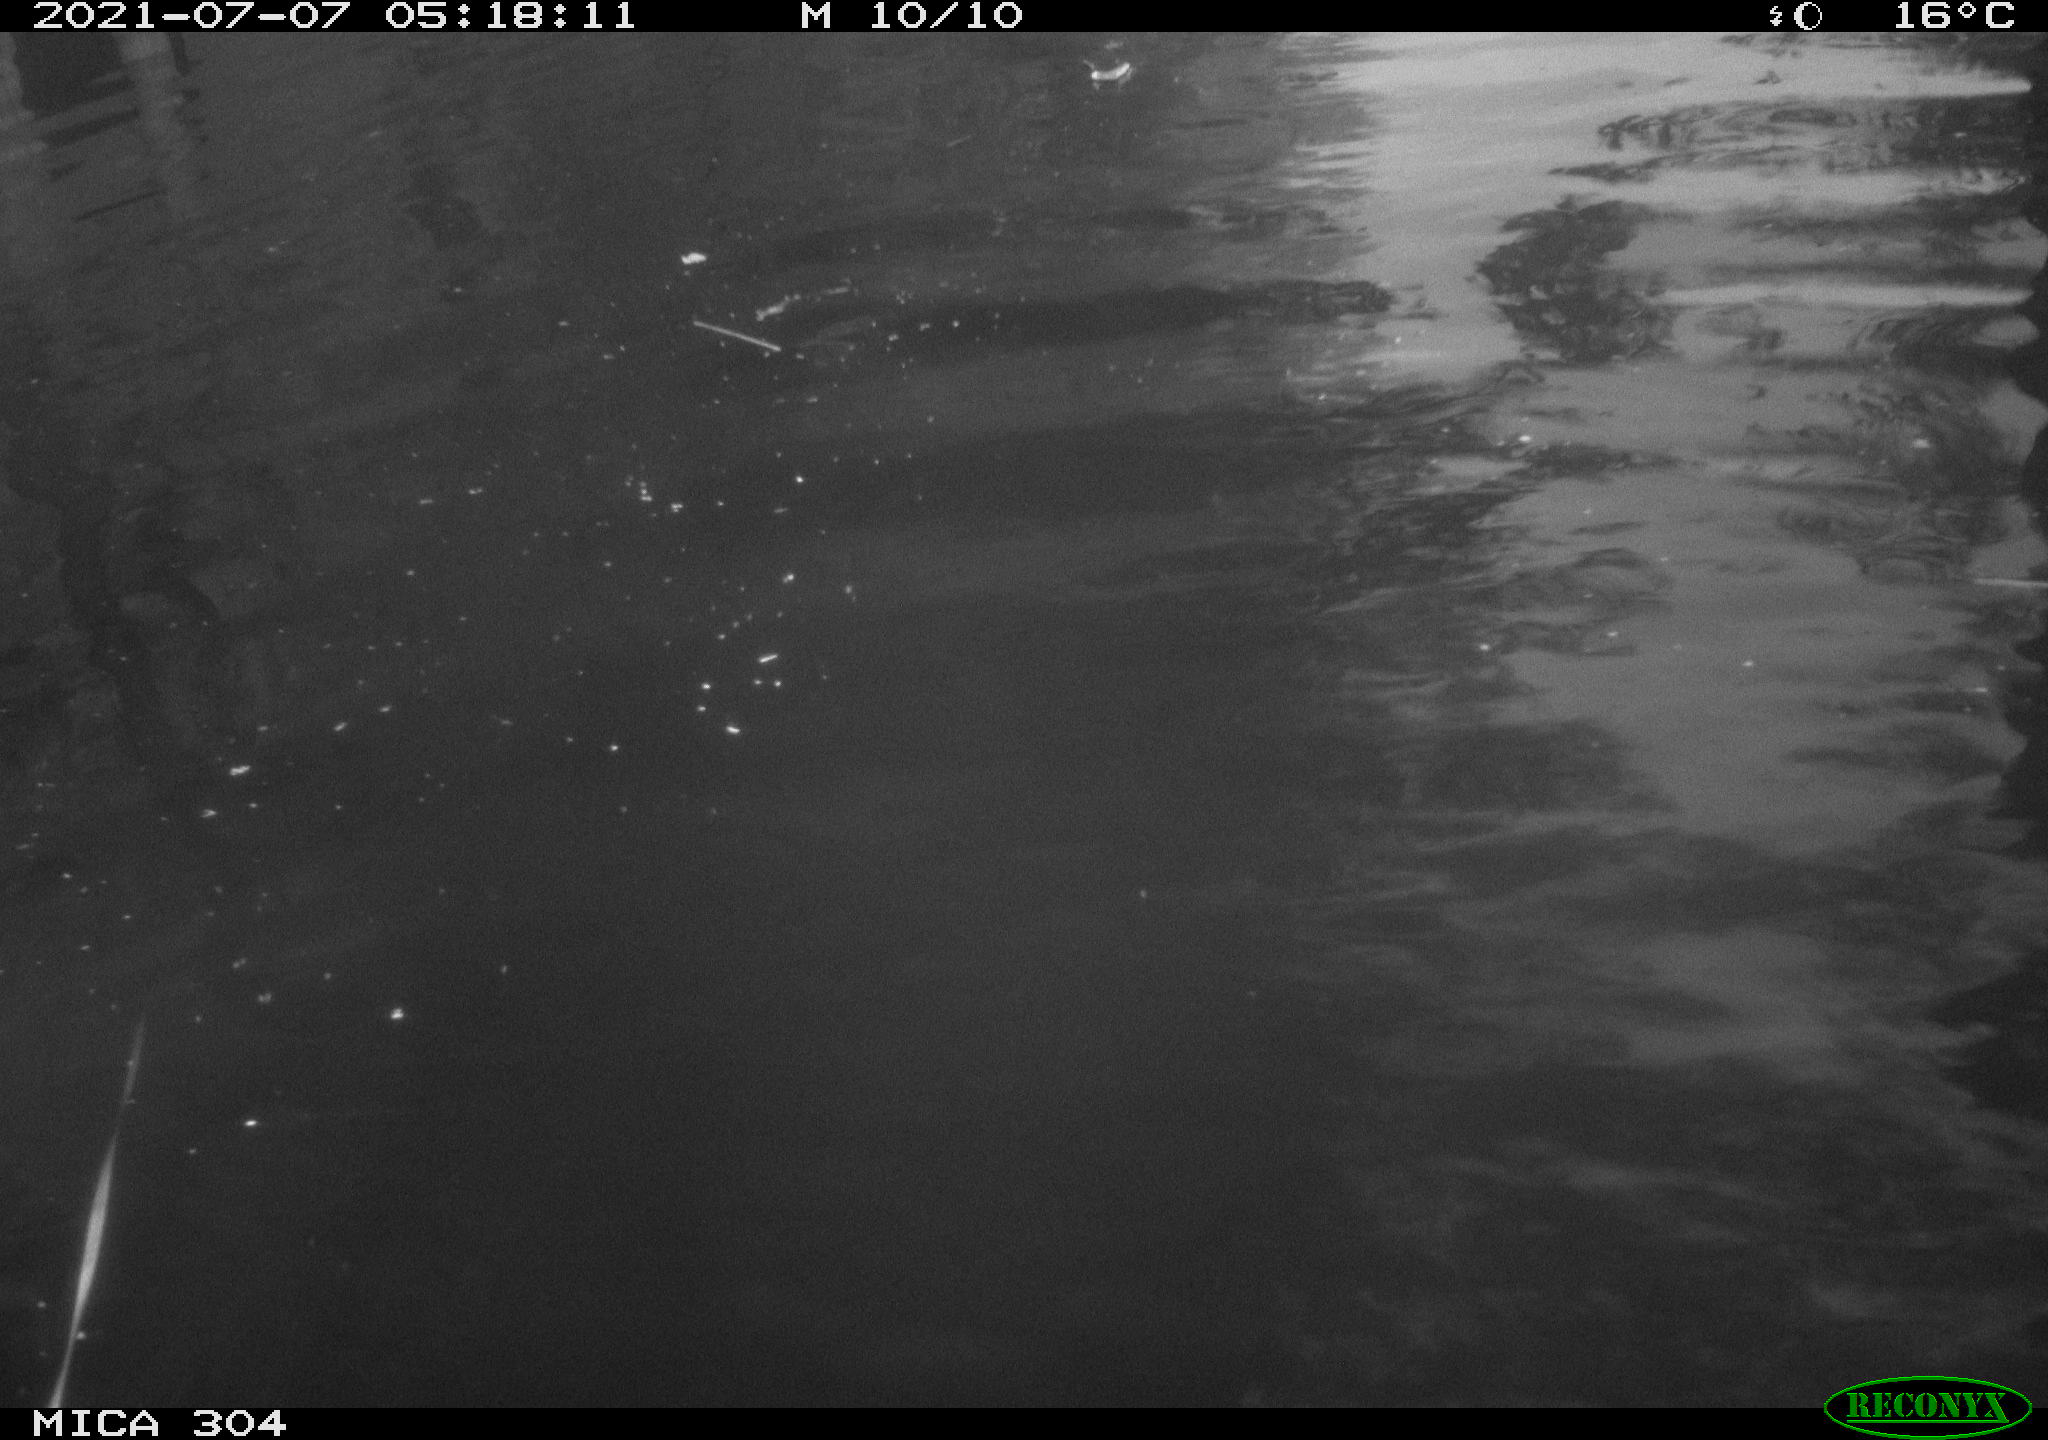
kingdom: Animalia
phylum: Chordata
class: Aves
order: Anseriformes
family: Anatidae
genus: Mareca
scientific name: Mareca strepera
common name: Gadwall
